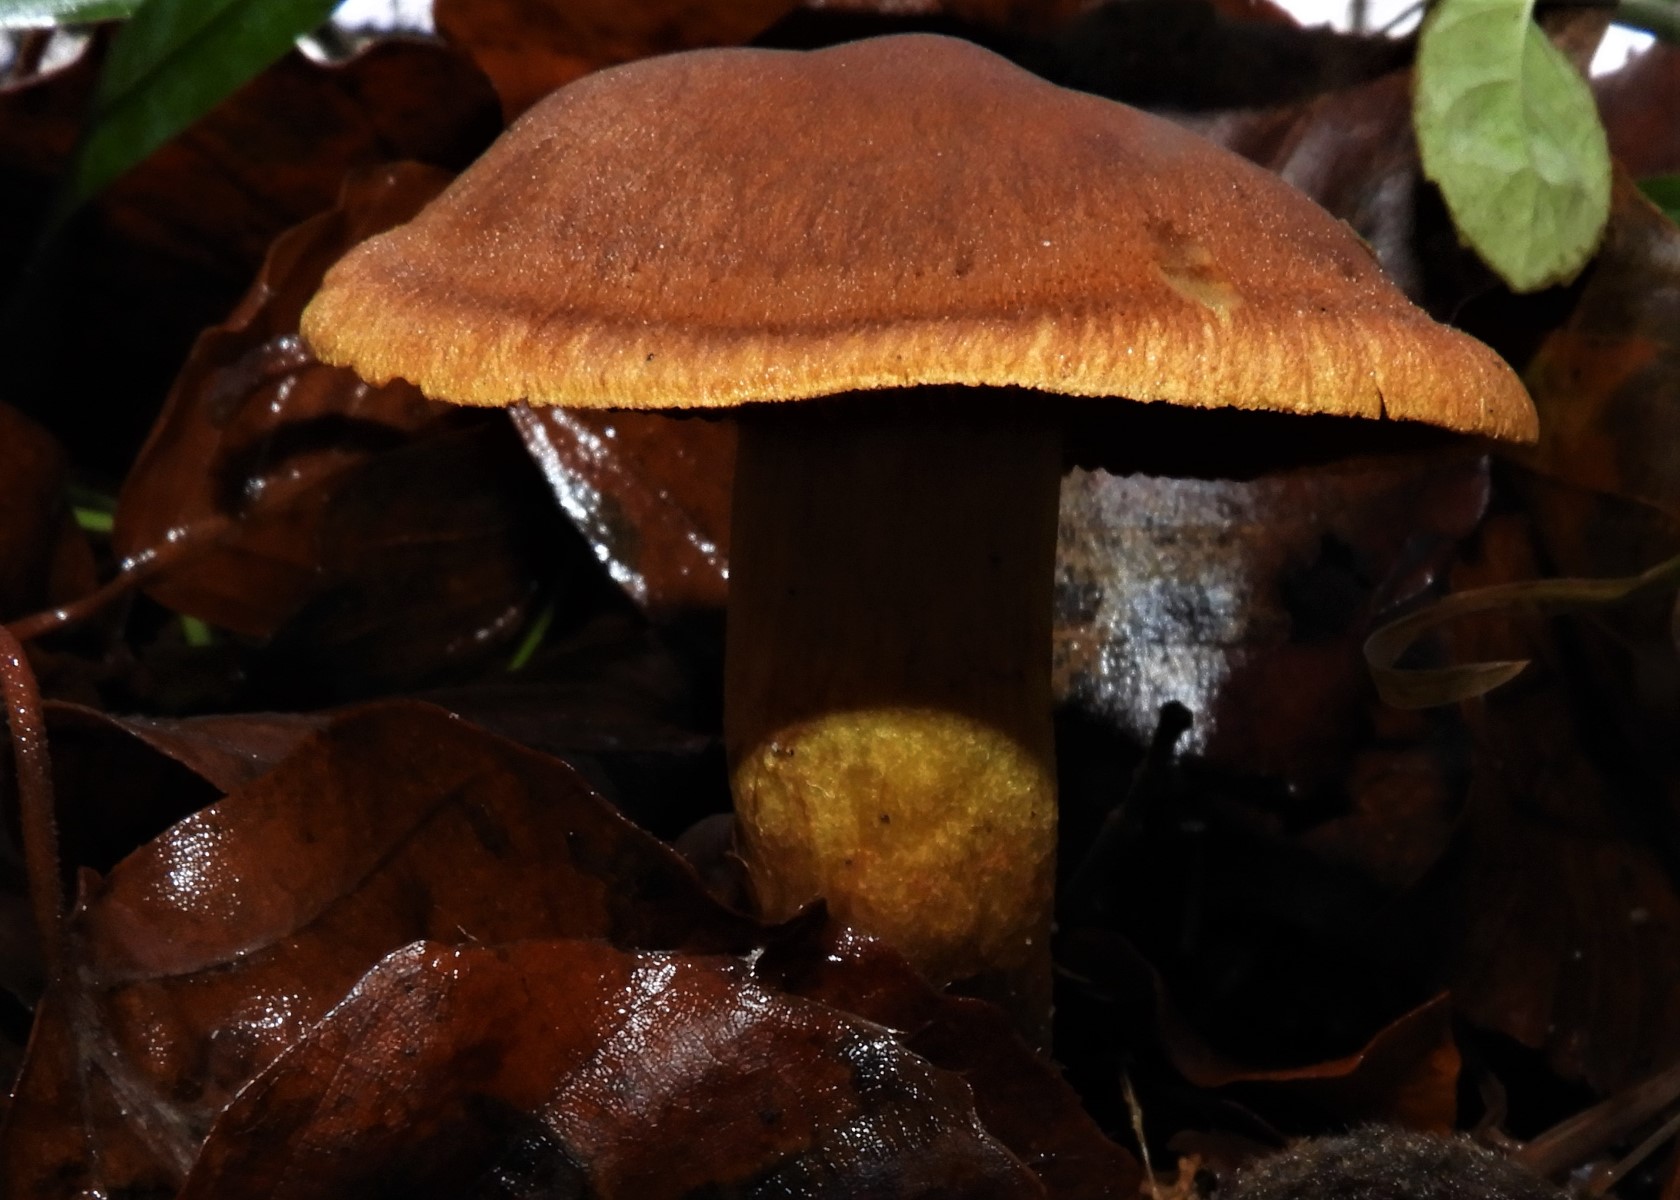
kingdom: Fungi
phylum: Basidiomycota
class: Agaricomycetes
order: Agaricales
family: Cortinariaceae
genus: Cortinarius
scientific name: Cortinarius malicorius
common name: grønkødet slørhat
